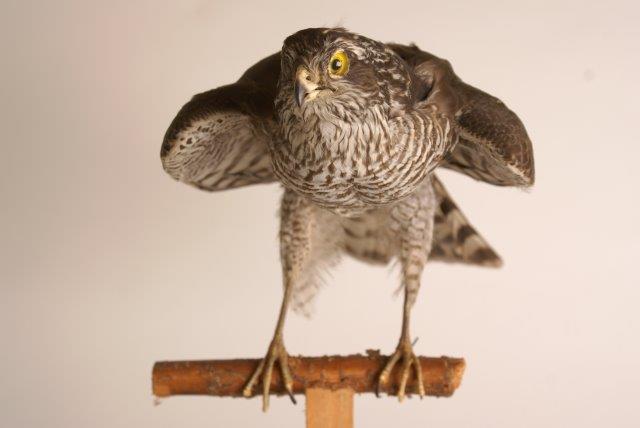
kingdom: Animalia
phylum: Chordata
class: Aves
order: Accipitriformes
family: Accipitridae
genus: Accipiter
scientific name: Accipiter nisus
